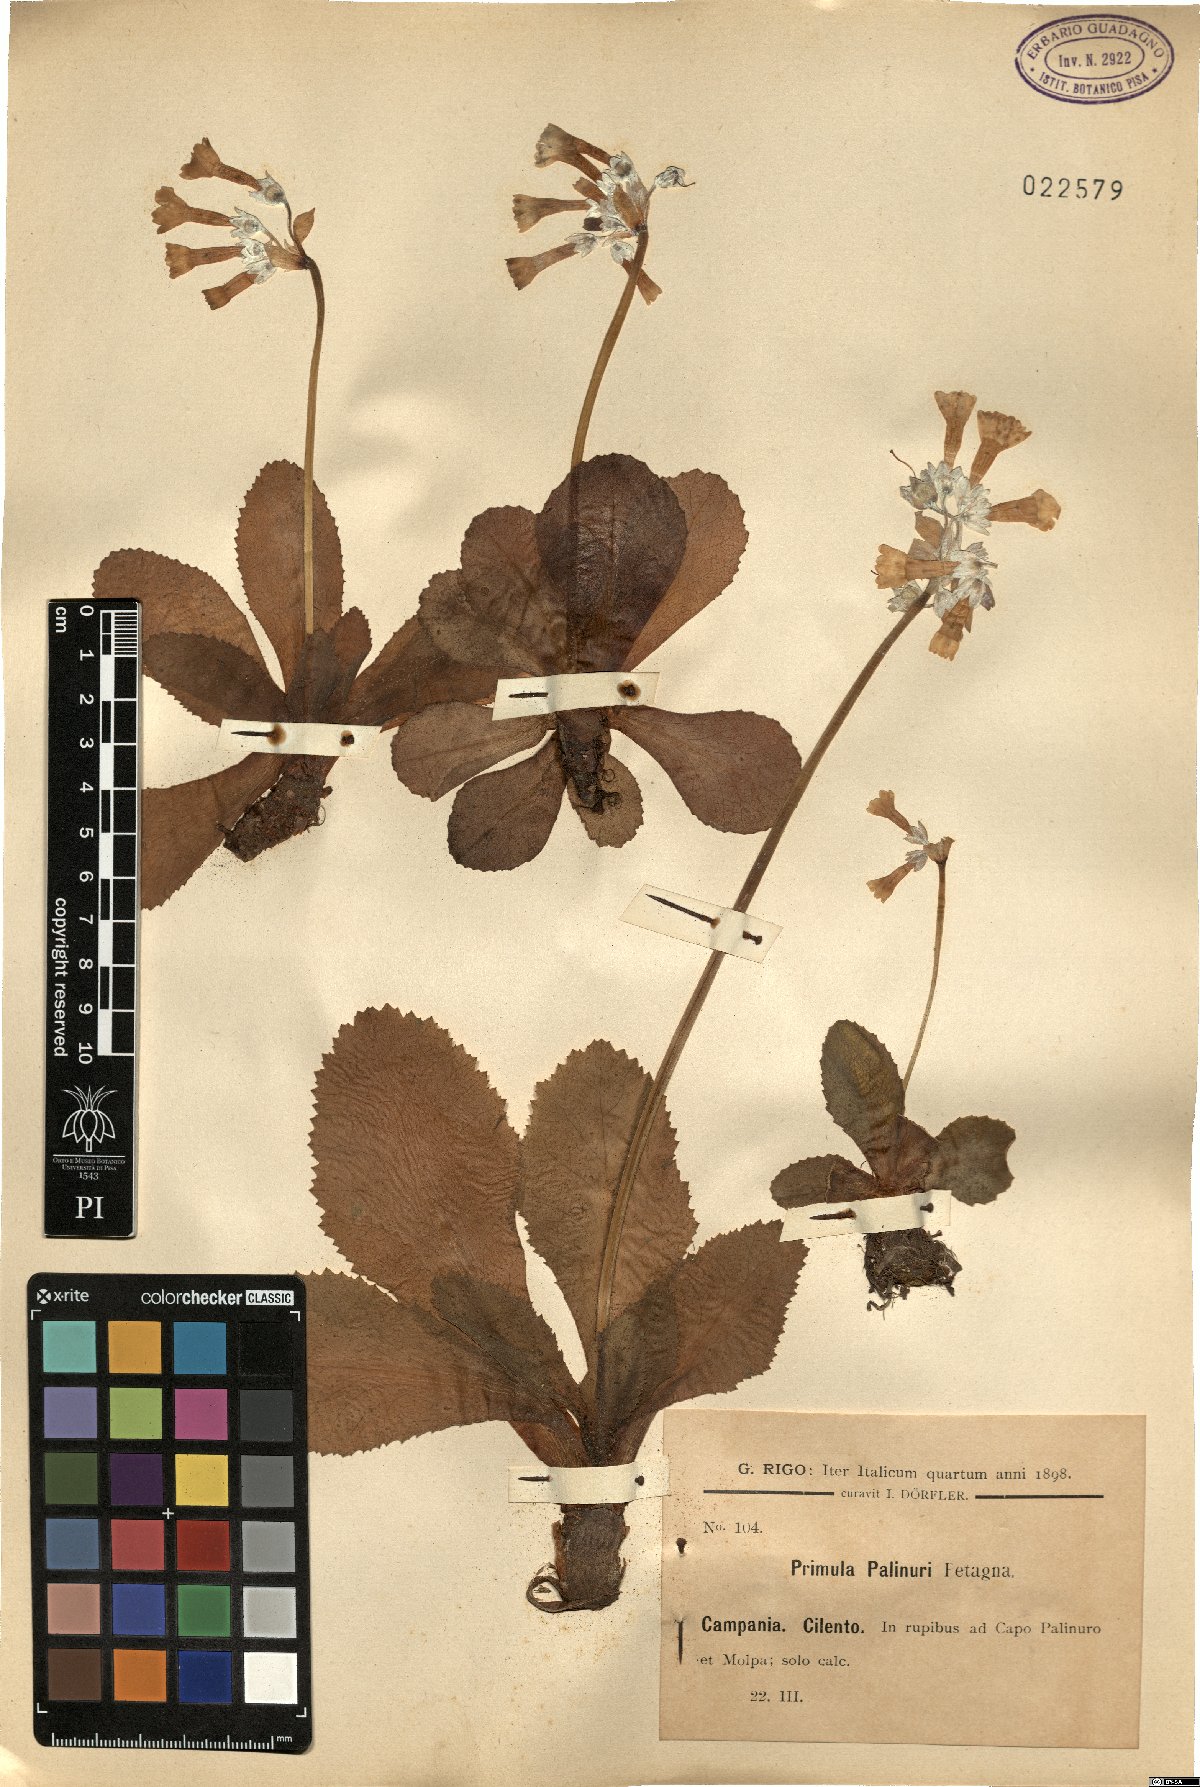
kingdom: Plantae
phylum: Tracheophyta
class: Magnoliopsida
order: Ericales
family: Primulaceae
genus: Primula
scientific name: Primula palinuri
